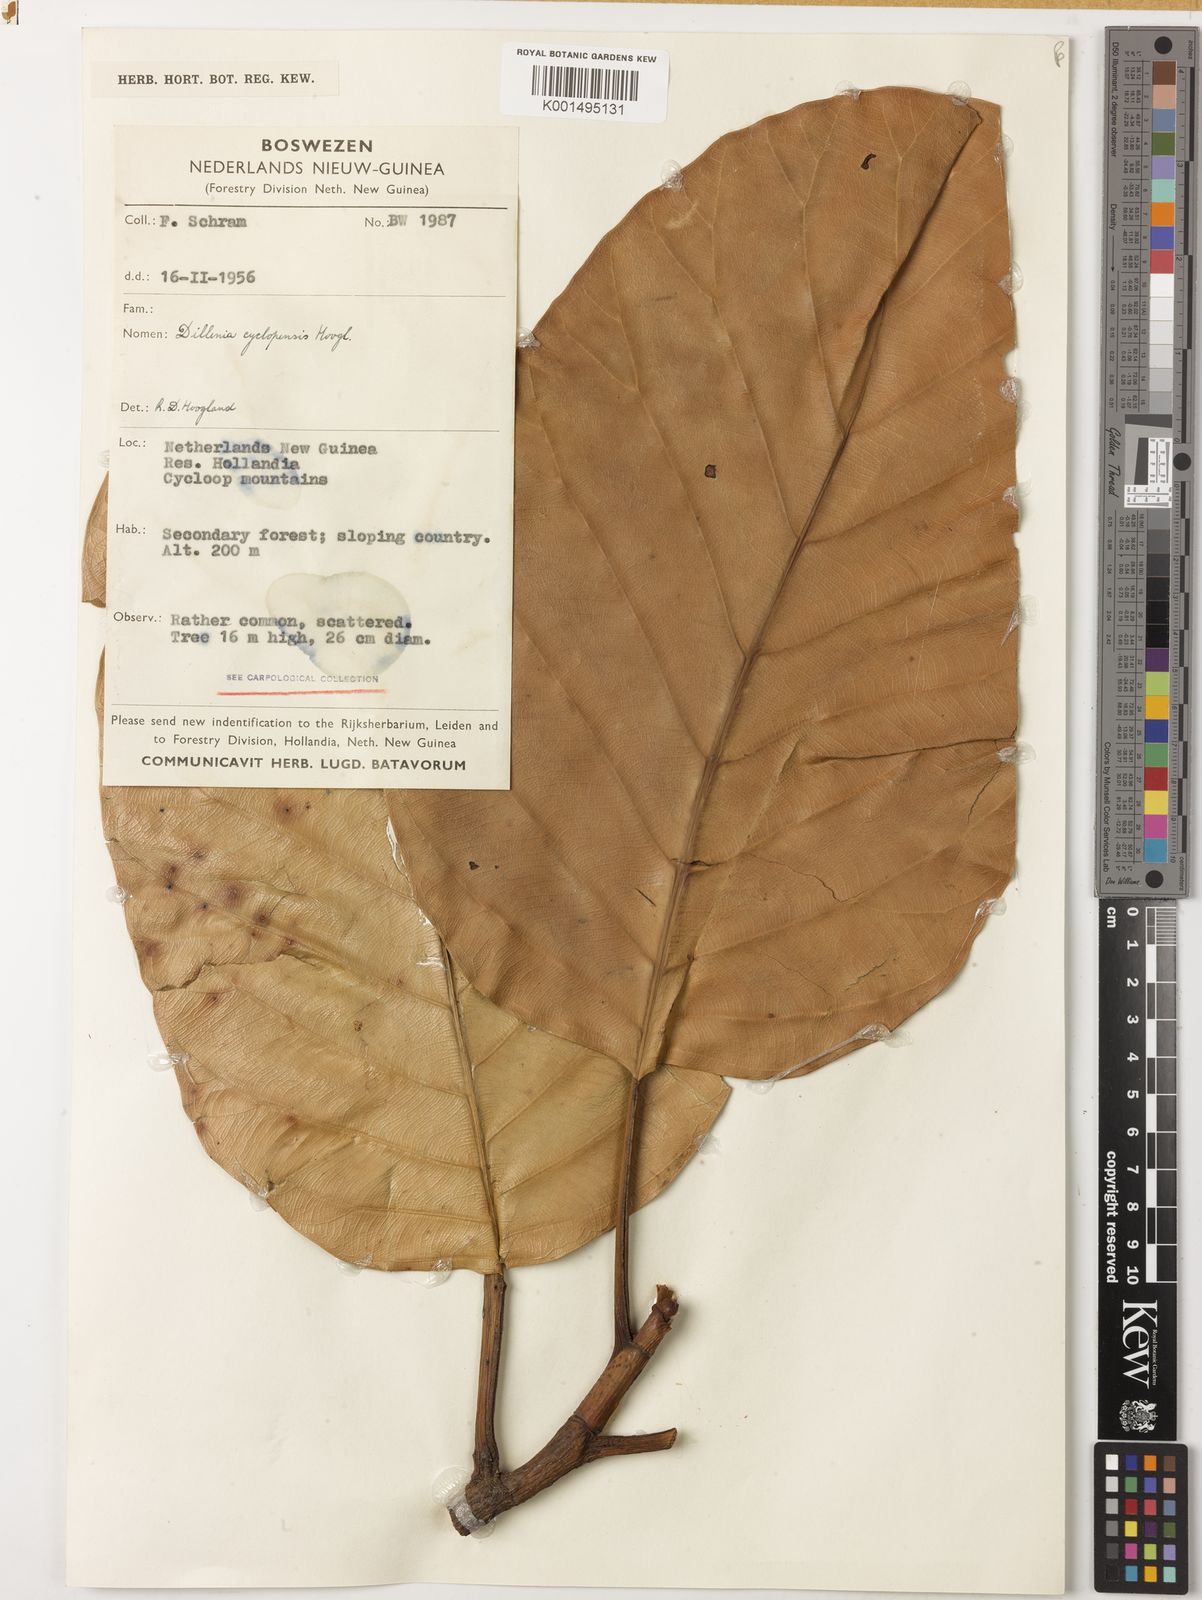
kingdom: Plantae
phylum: Tracheophyta
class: Magnoliopsida
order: Dilleniales
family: Dilleniaceae
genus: Dillenia
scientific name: Dillenia cyclopensis
